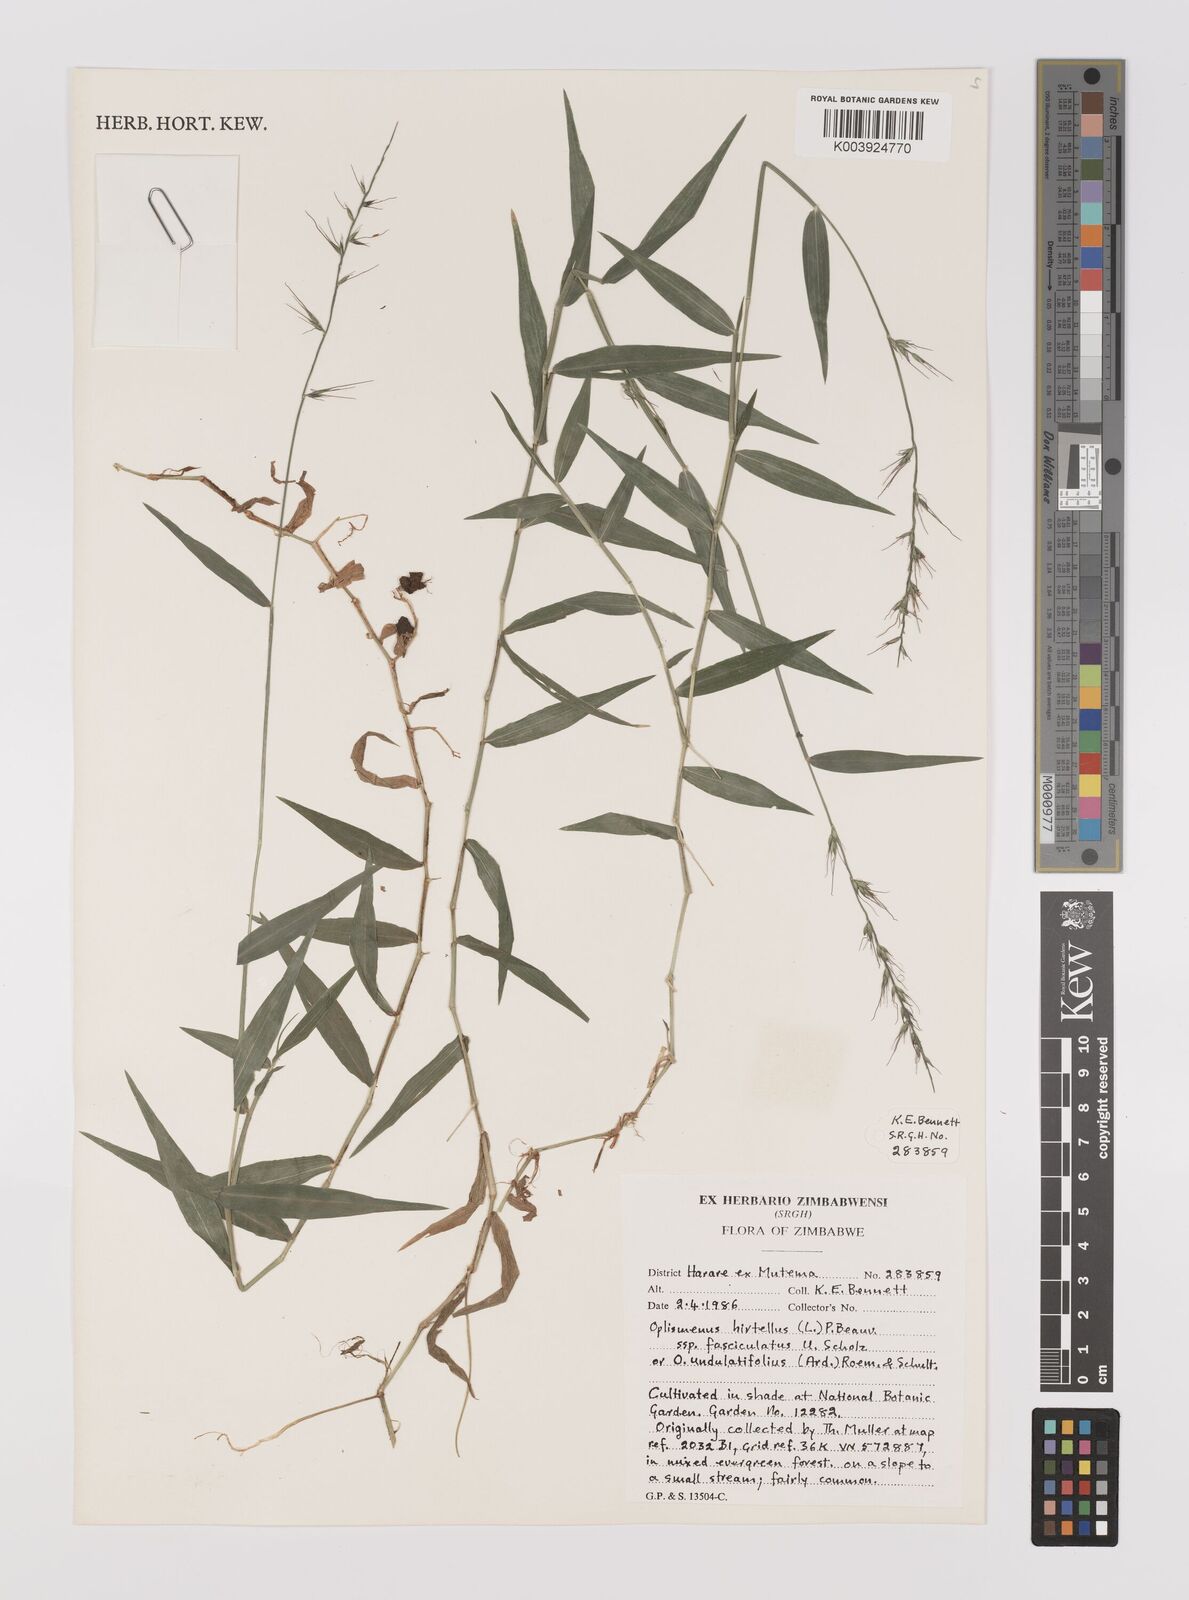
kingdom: Plantae
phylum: Tracheophyta
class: Liliopsida
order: Poales
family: Poaceae
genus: Oplismenus
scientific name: Oplismenus hirtellus
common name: Basketgrass
